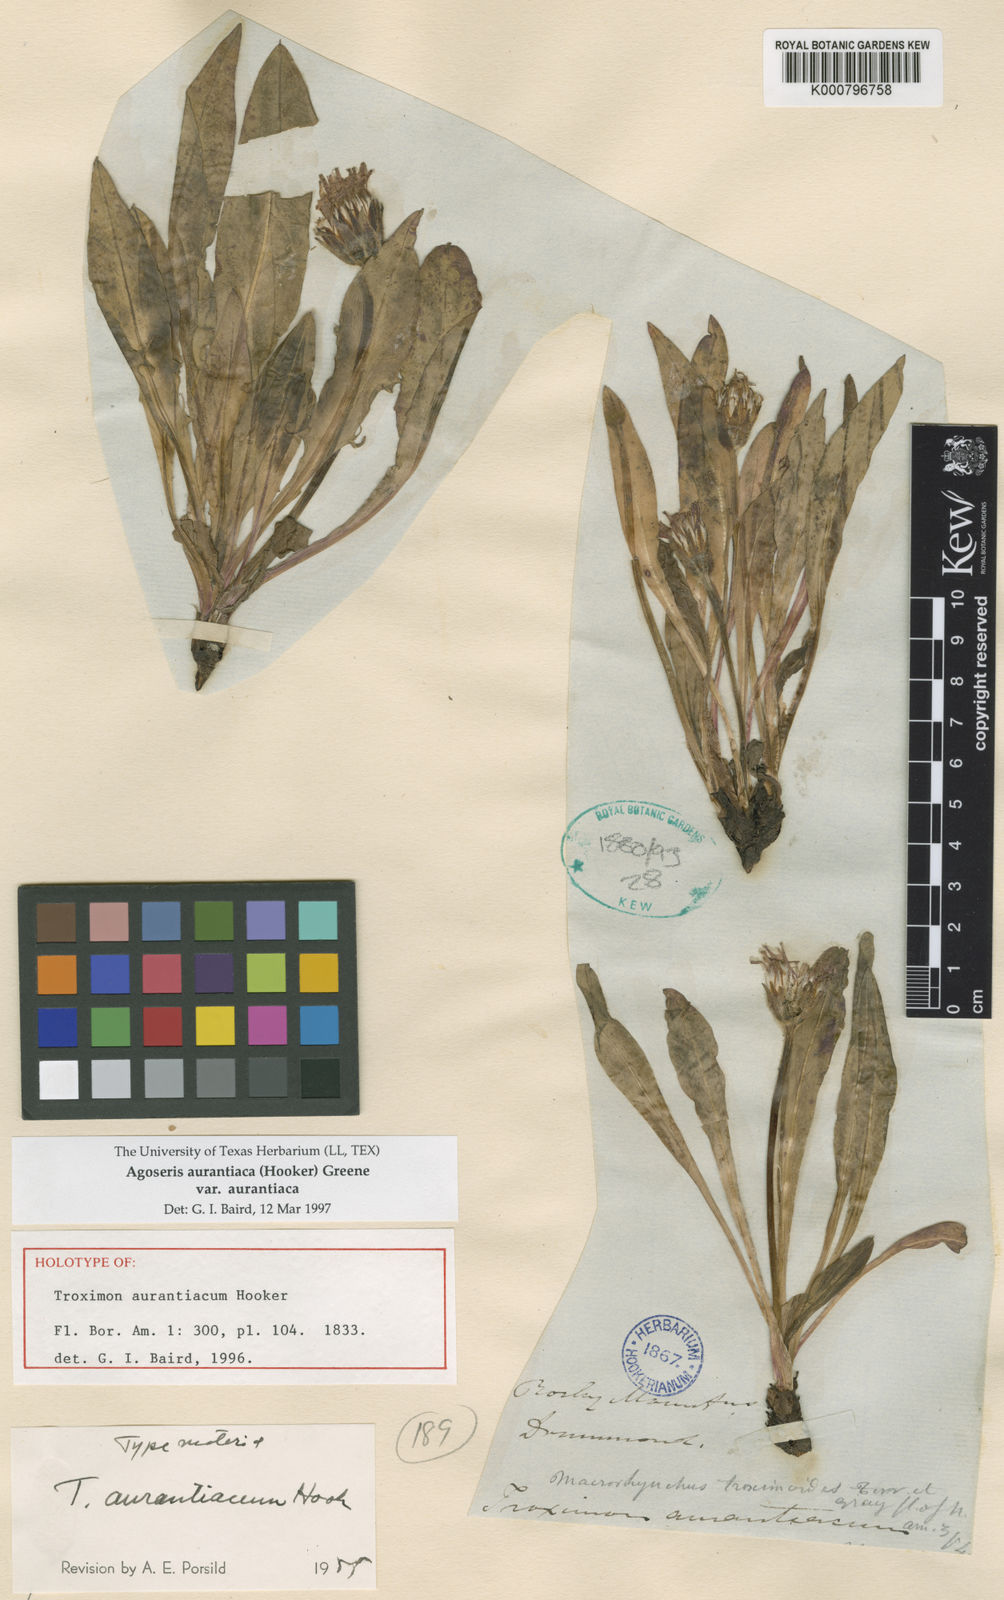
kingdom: Plantae
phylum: Tracheophyta
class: Magnoliopsida
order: Asterales
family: Asteraceae
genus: Agoseris
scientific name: Agoseris aurantiaca
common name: Mountain agoseris
